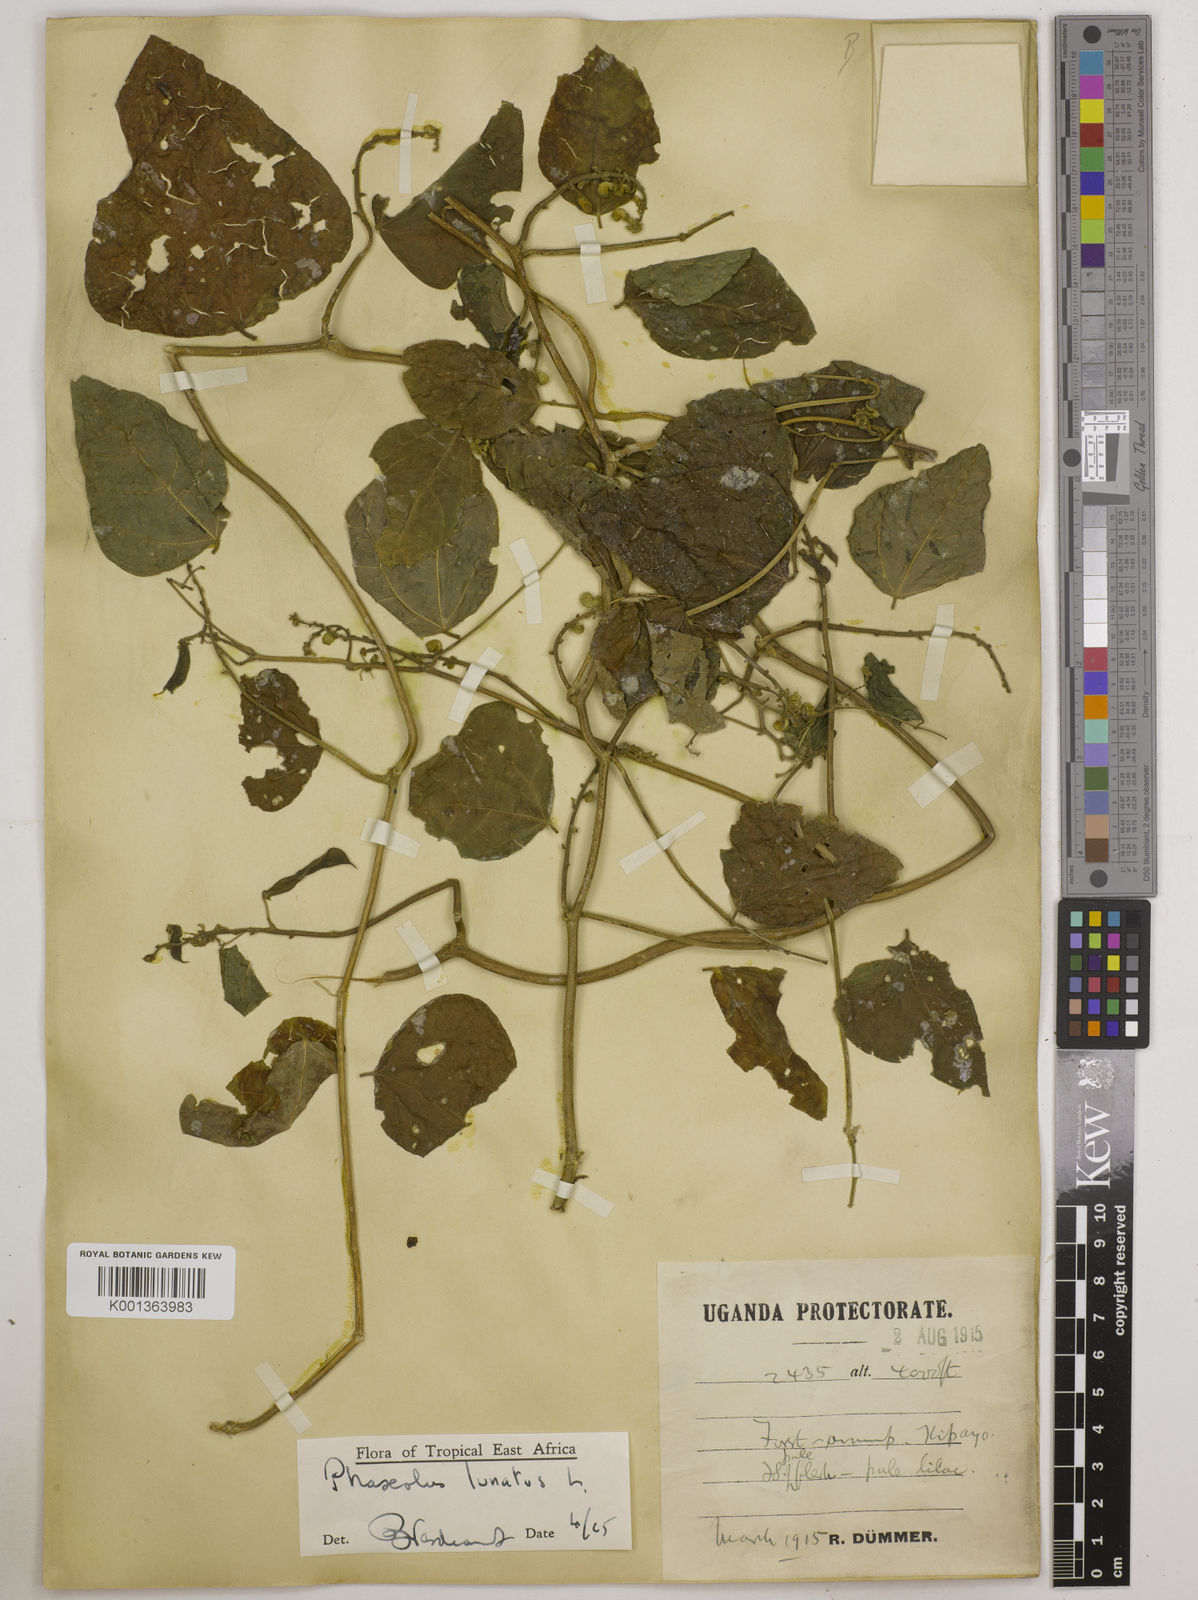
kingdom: Plantae
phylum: Tracheophyta
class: Magnoliopsida
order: Fabales
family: Fabaceae
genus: Phaseolus
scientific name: Phaseolus lunatus
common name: Sieva bean
